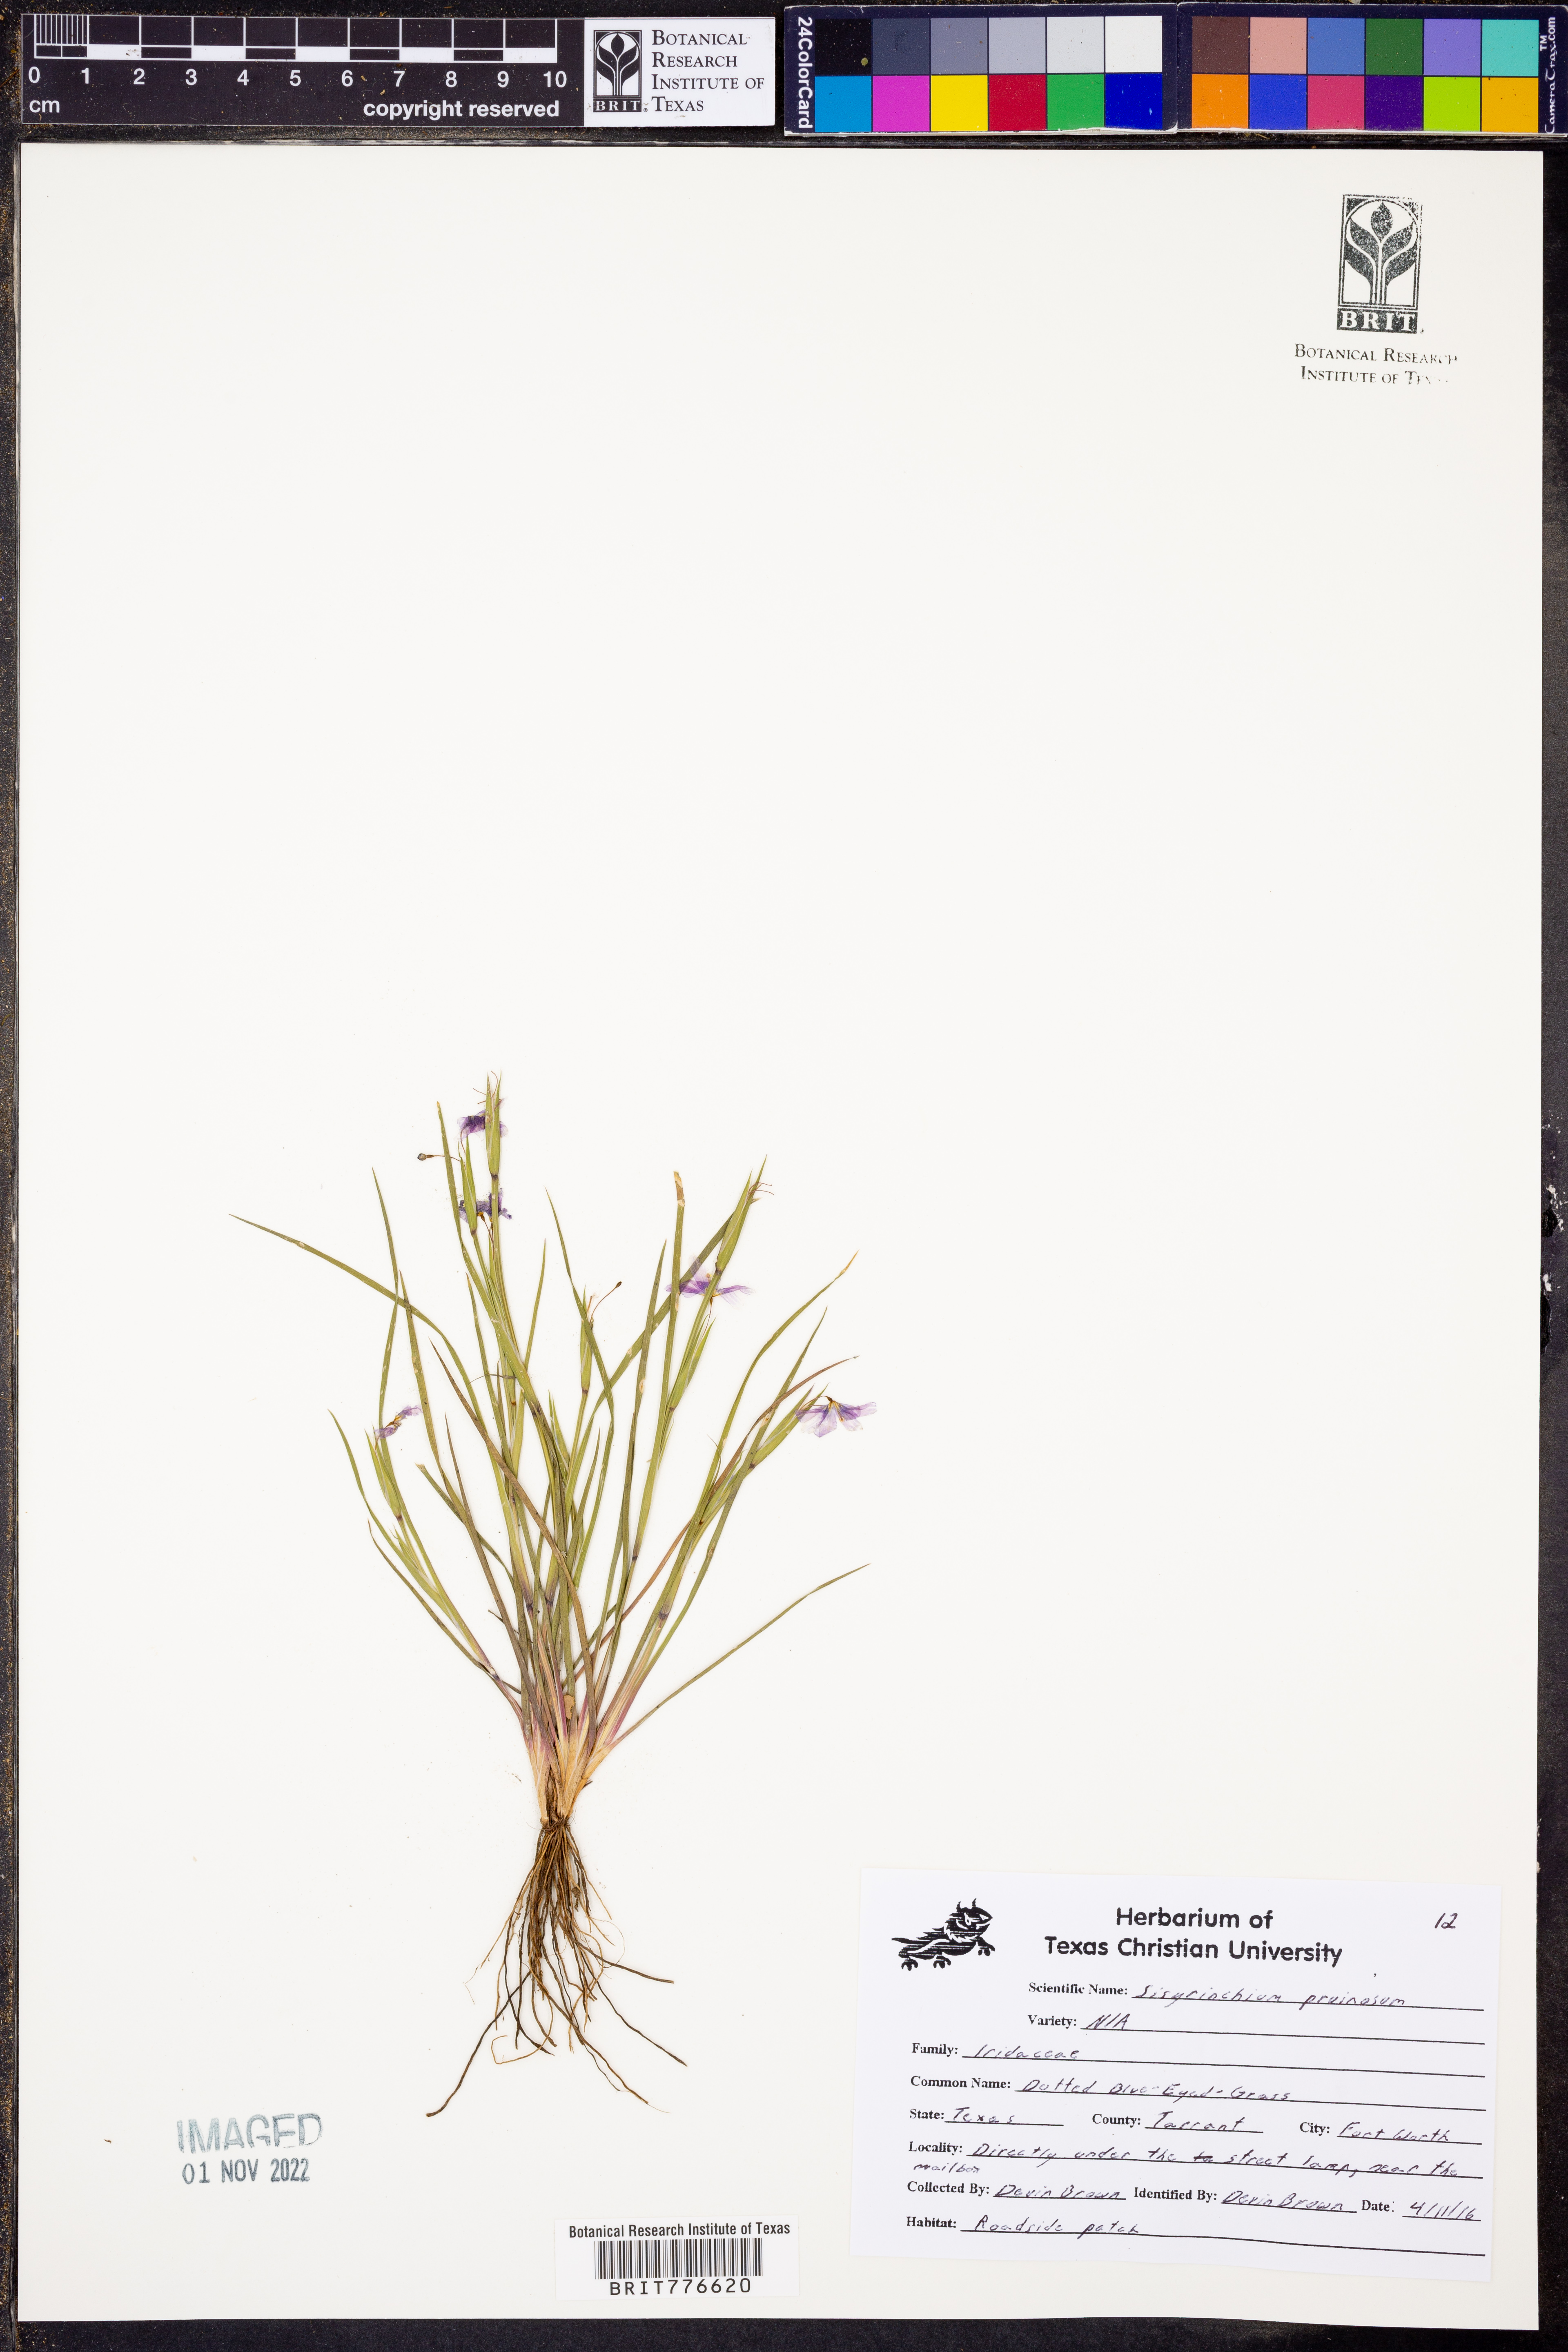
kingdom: Plantae
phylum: Tracheophyta
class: Liliopsida
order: Asparagales
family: Iridaceae
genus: Sisyrinchium
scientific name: Sisyrinchium pruinosum
